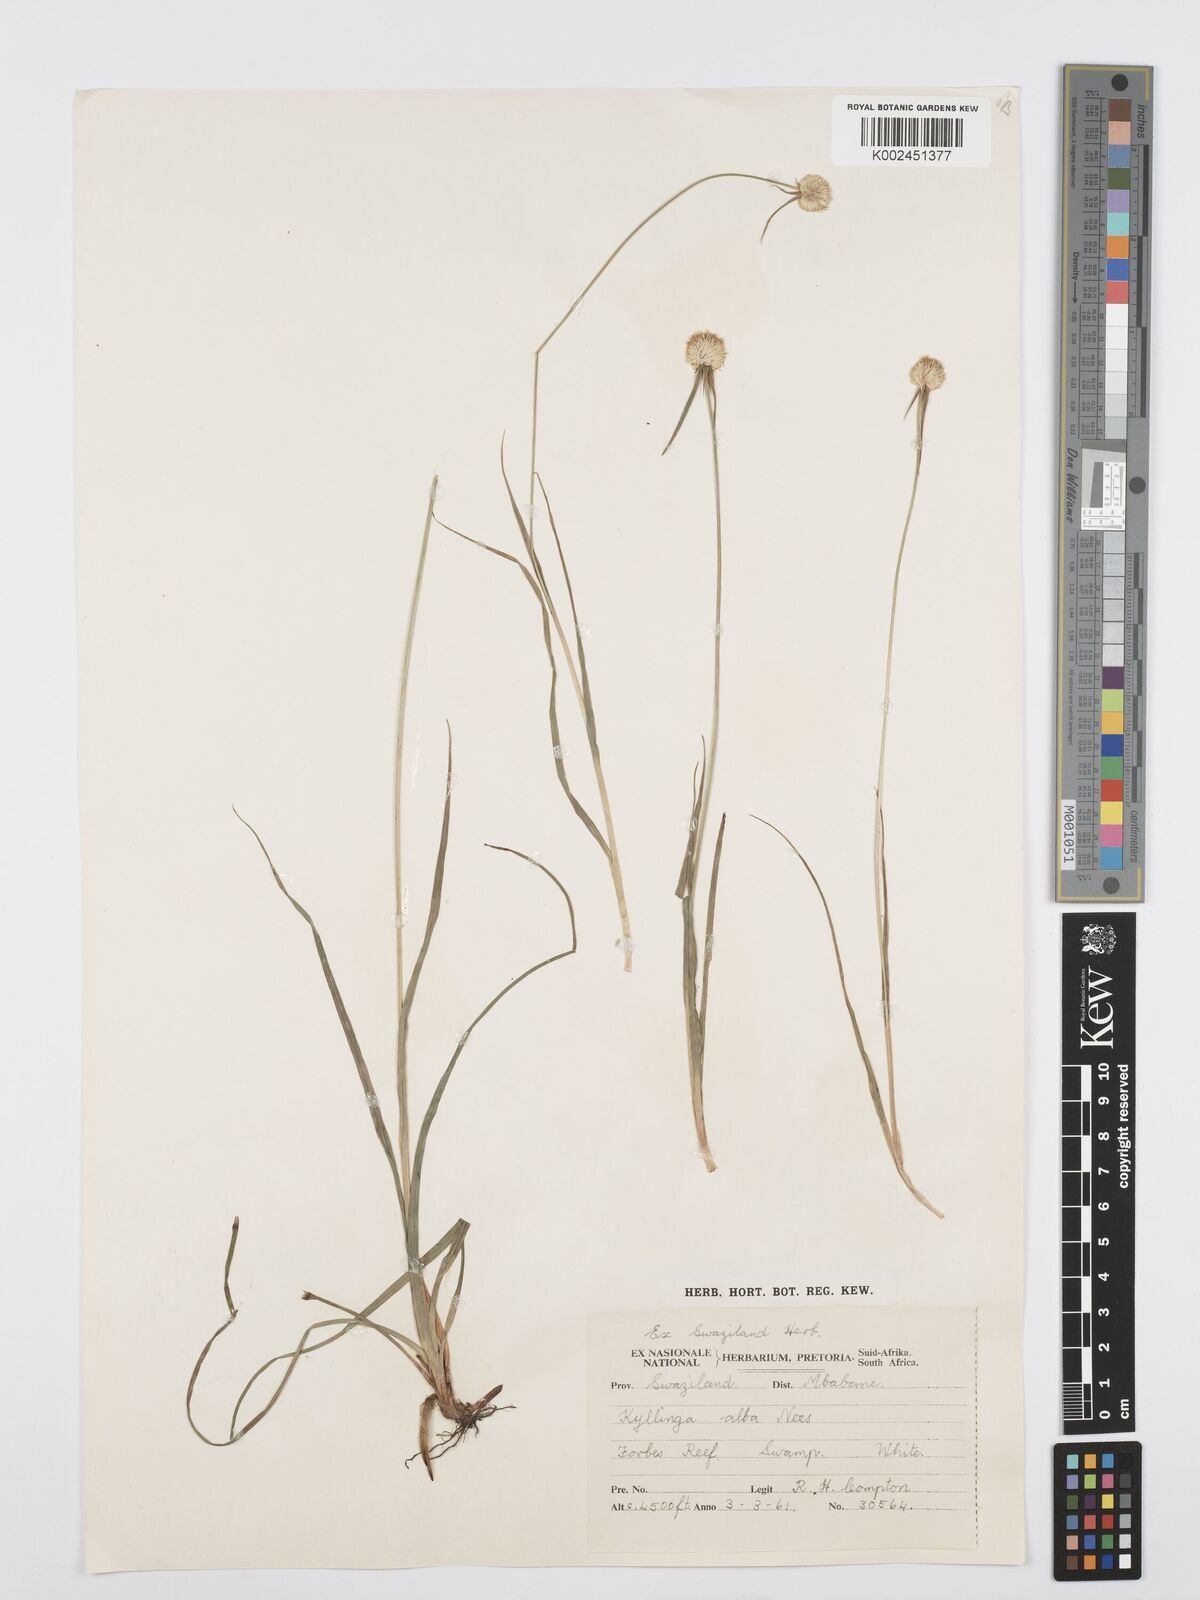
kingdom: Plantae
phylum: Tracheophyta
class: Liliopsida
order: Poales
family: Cyperaceae
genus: Cyperus
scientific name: Cyperus
